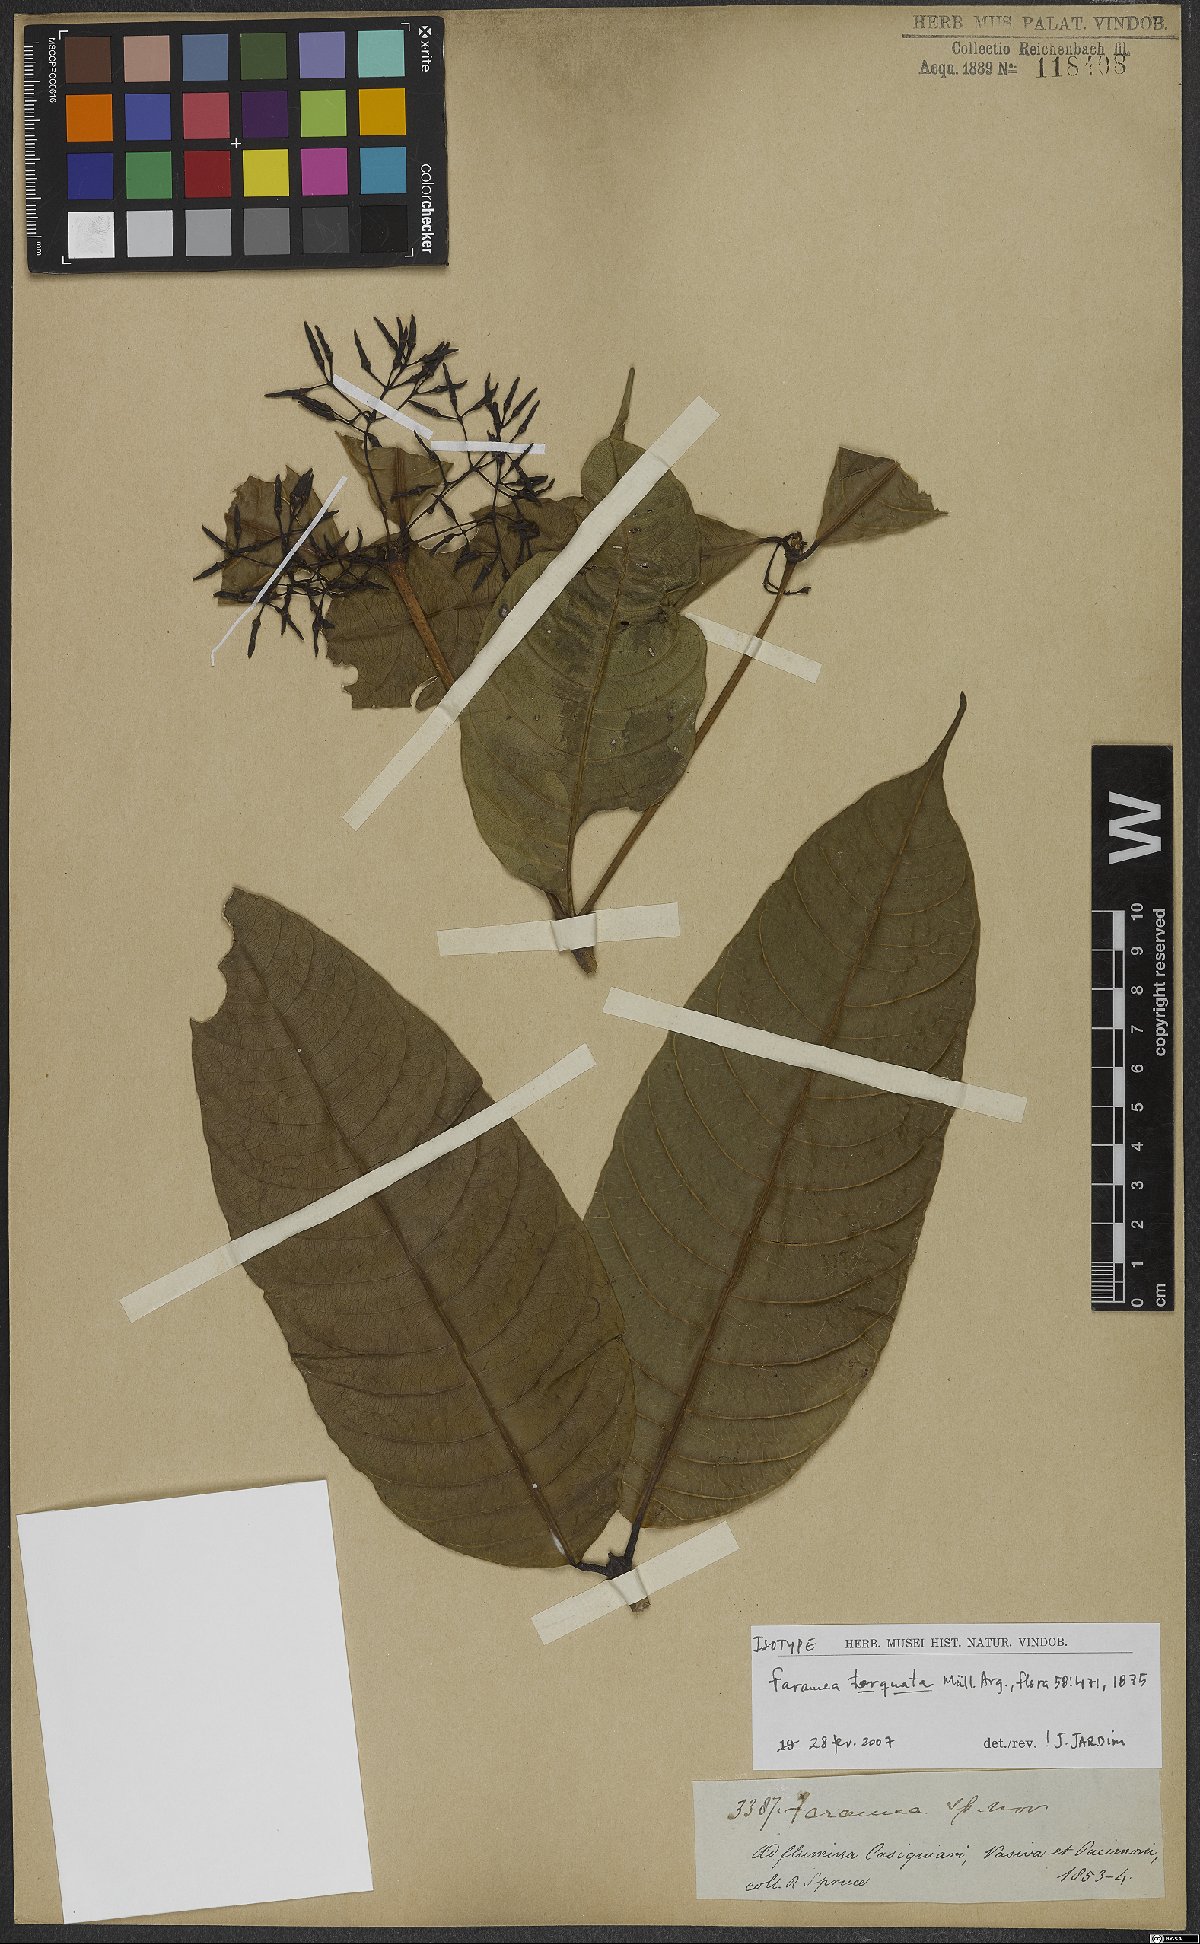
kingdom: Plantae
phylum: Tracheophyta
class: Magnoliopsida
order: Gentianales
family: Rubiaceae
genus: Faramea
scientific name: Faramea torquata
